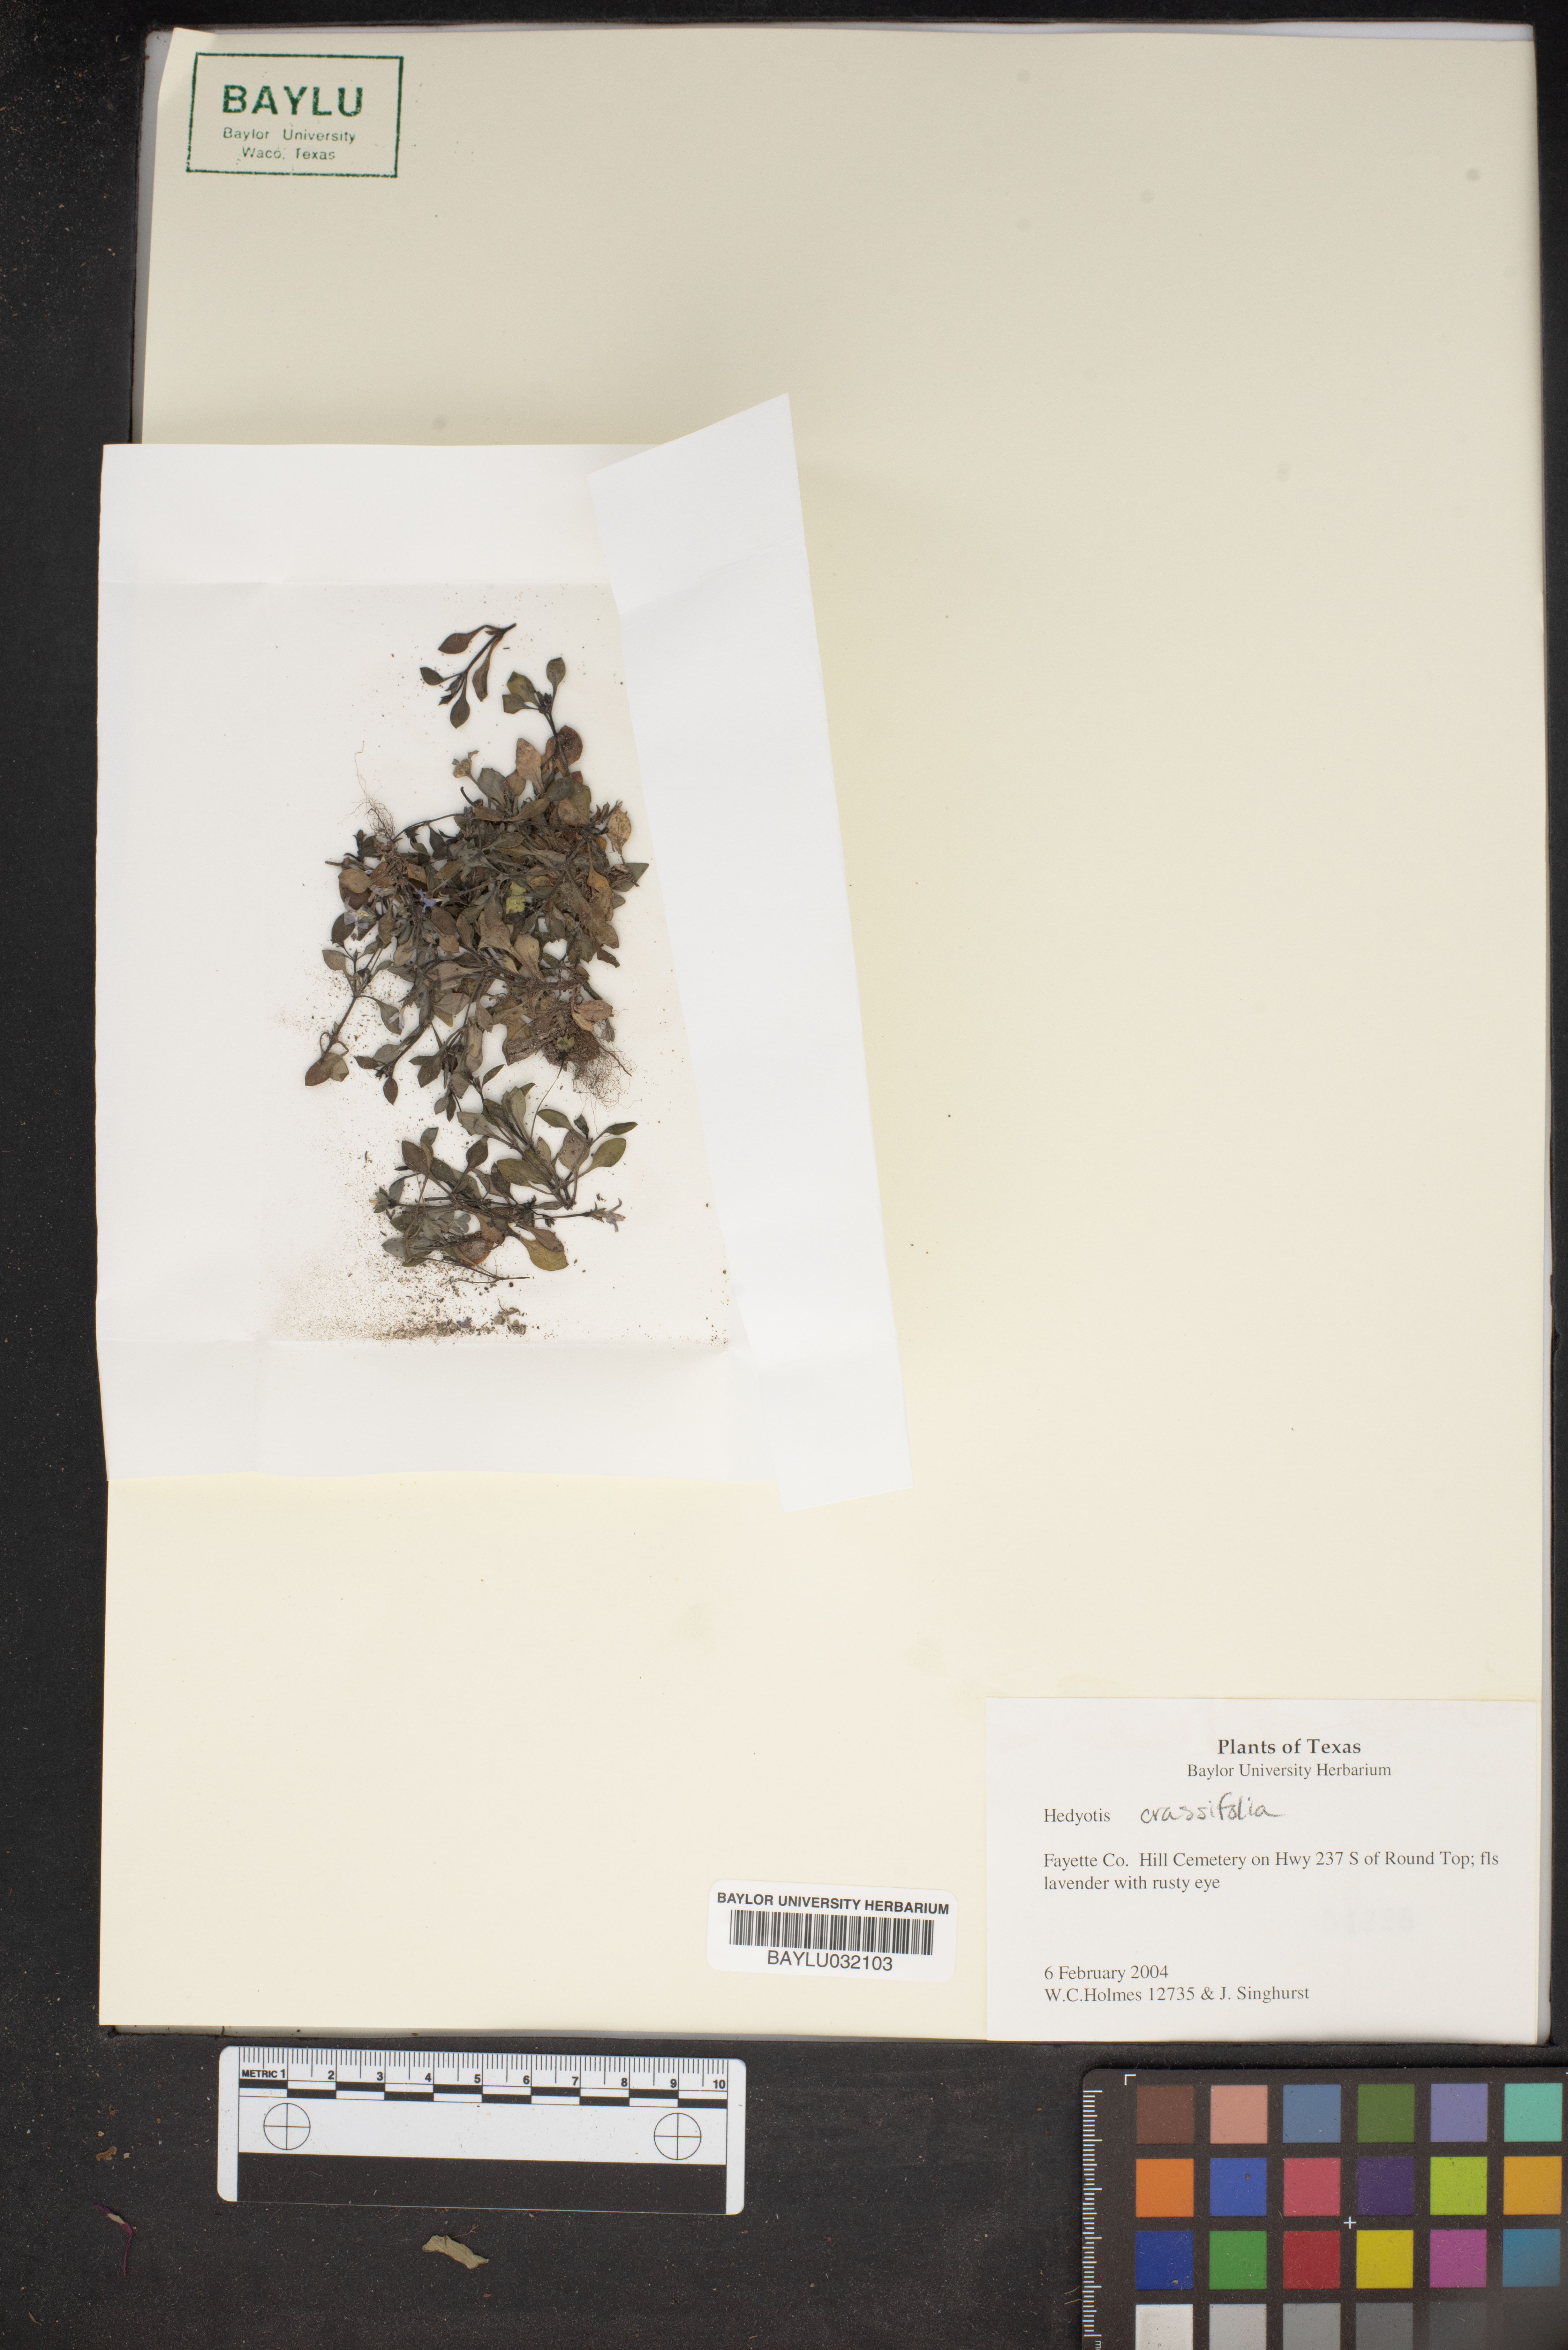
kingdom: Plantae
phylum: Tracheophyta
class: Magnoliopsida
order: Gentianales
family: Rubiaceae
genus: Houstonia
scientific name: Houstonia pusilla
